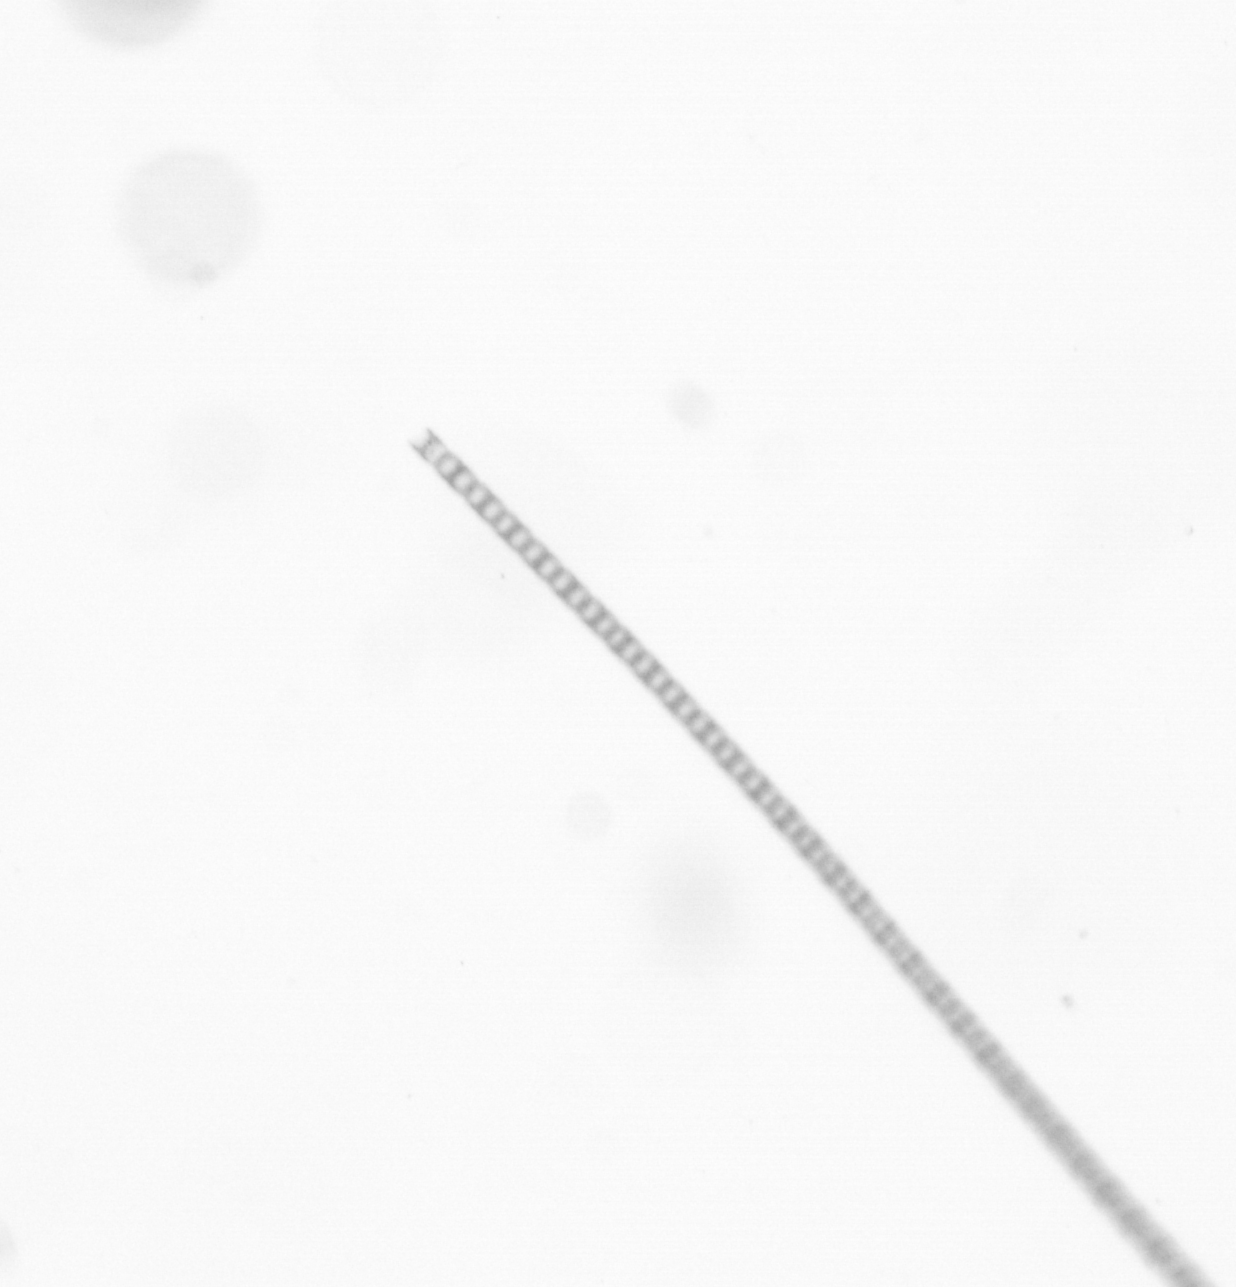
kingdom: Chromista
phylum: Ochrophyta
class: Bacillariophyceae
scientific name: Bacillariophyceae
